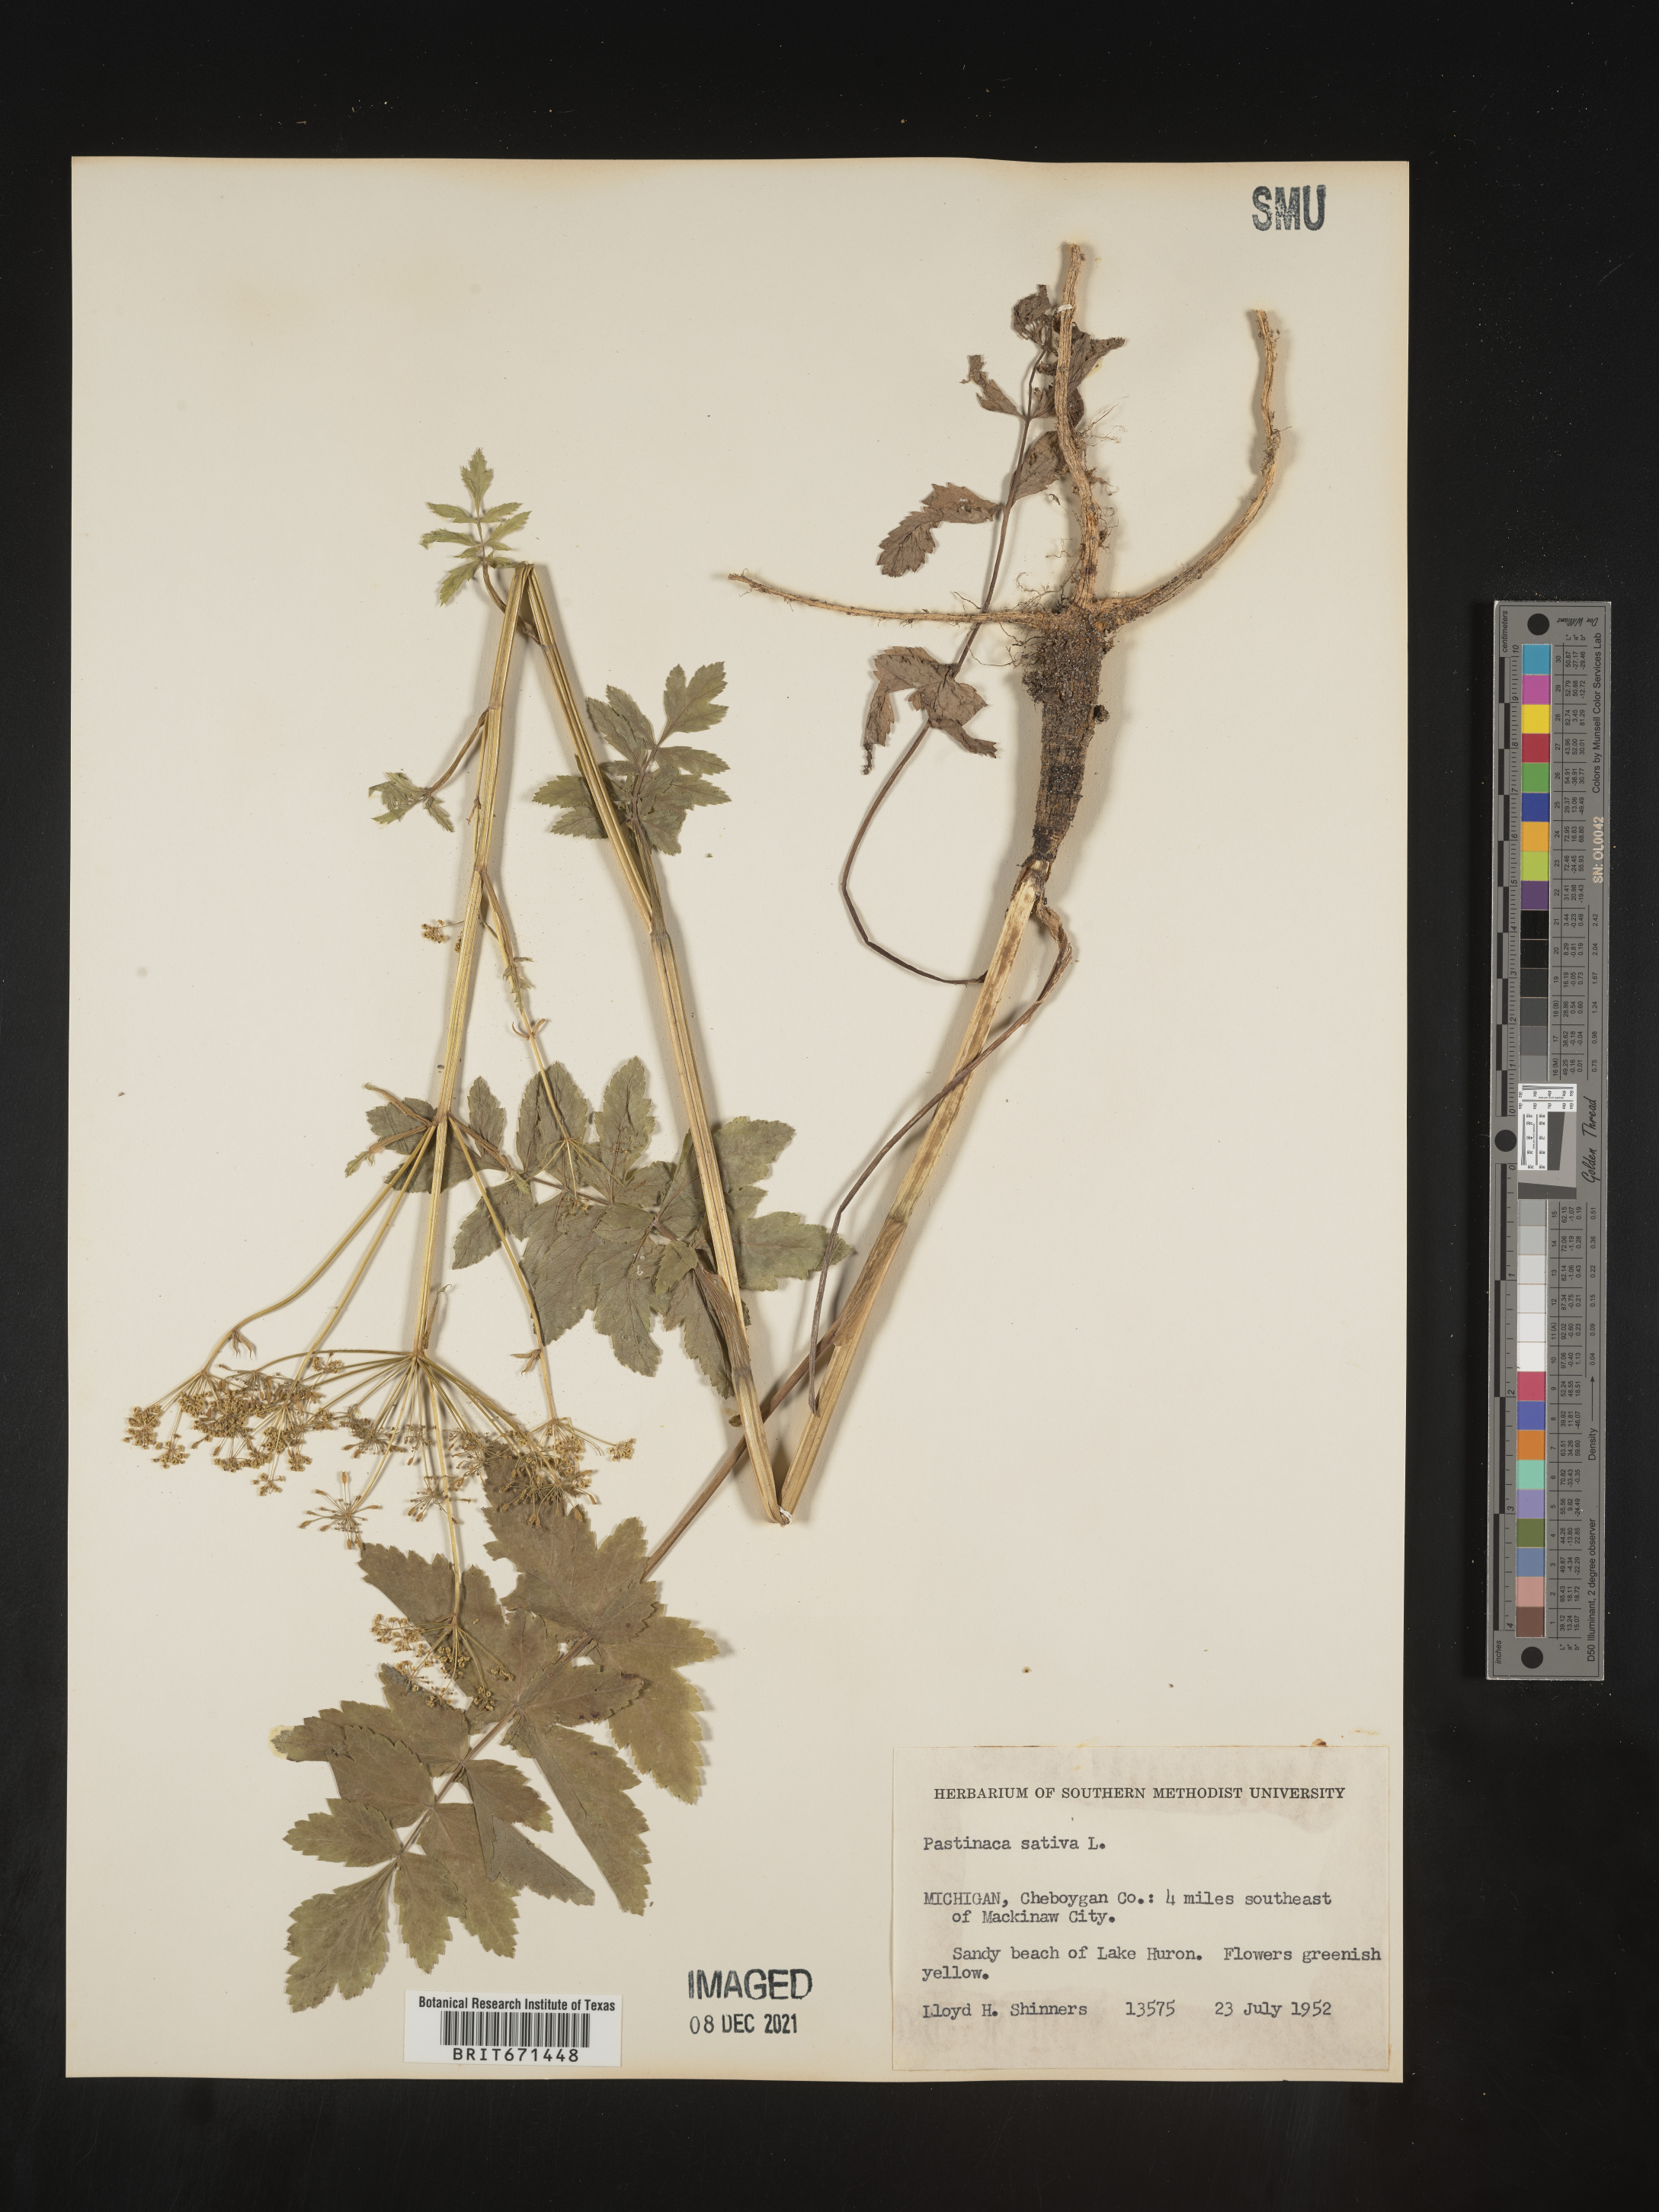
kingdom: Plantae
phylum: Tracheophyta
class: Magnoliopsida
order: Apiales
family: Apiaceae
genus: Pastinaca
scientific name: Pastinaca
